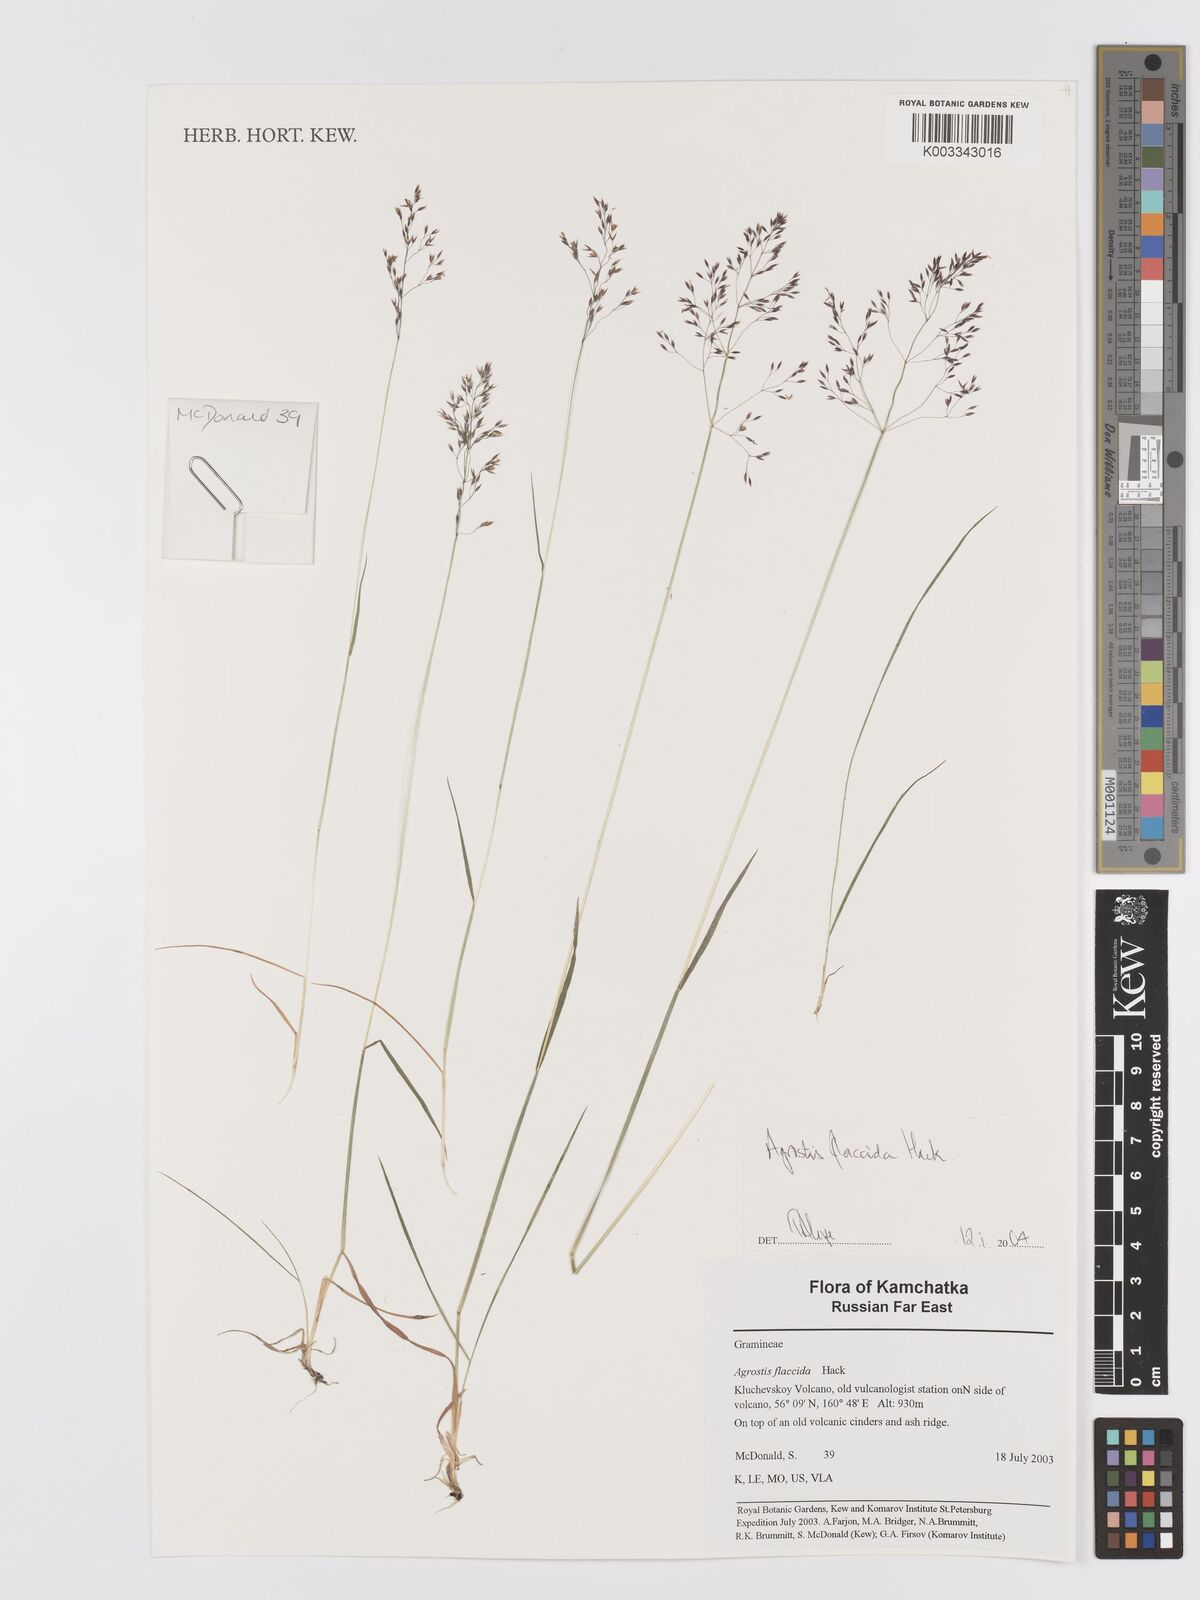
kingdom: Plantae
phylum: Tracheophyta
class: Liliopsida
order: Poales
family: Poaceae
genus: Agrostis
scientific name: Agrostis flaccida
